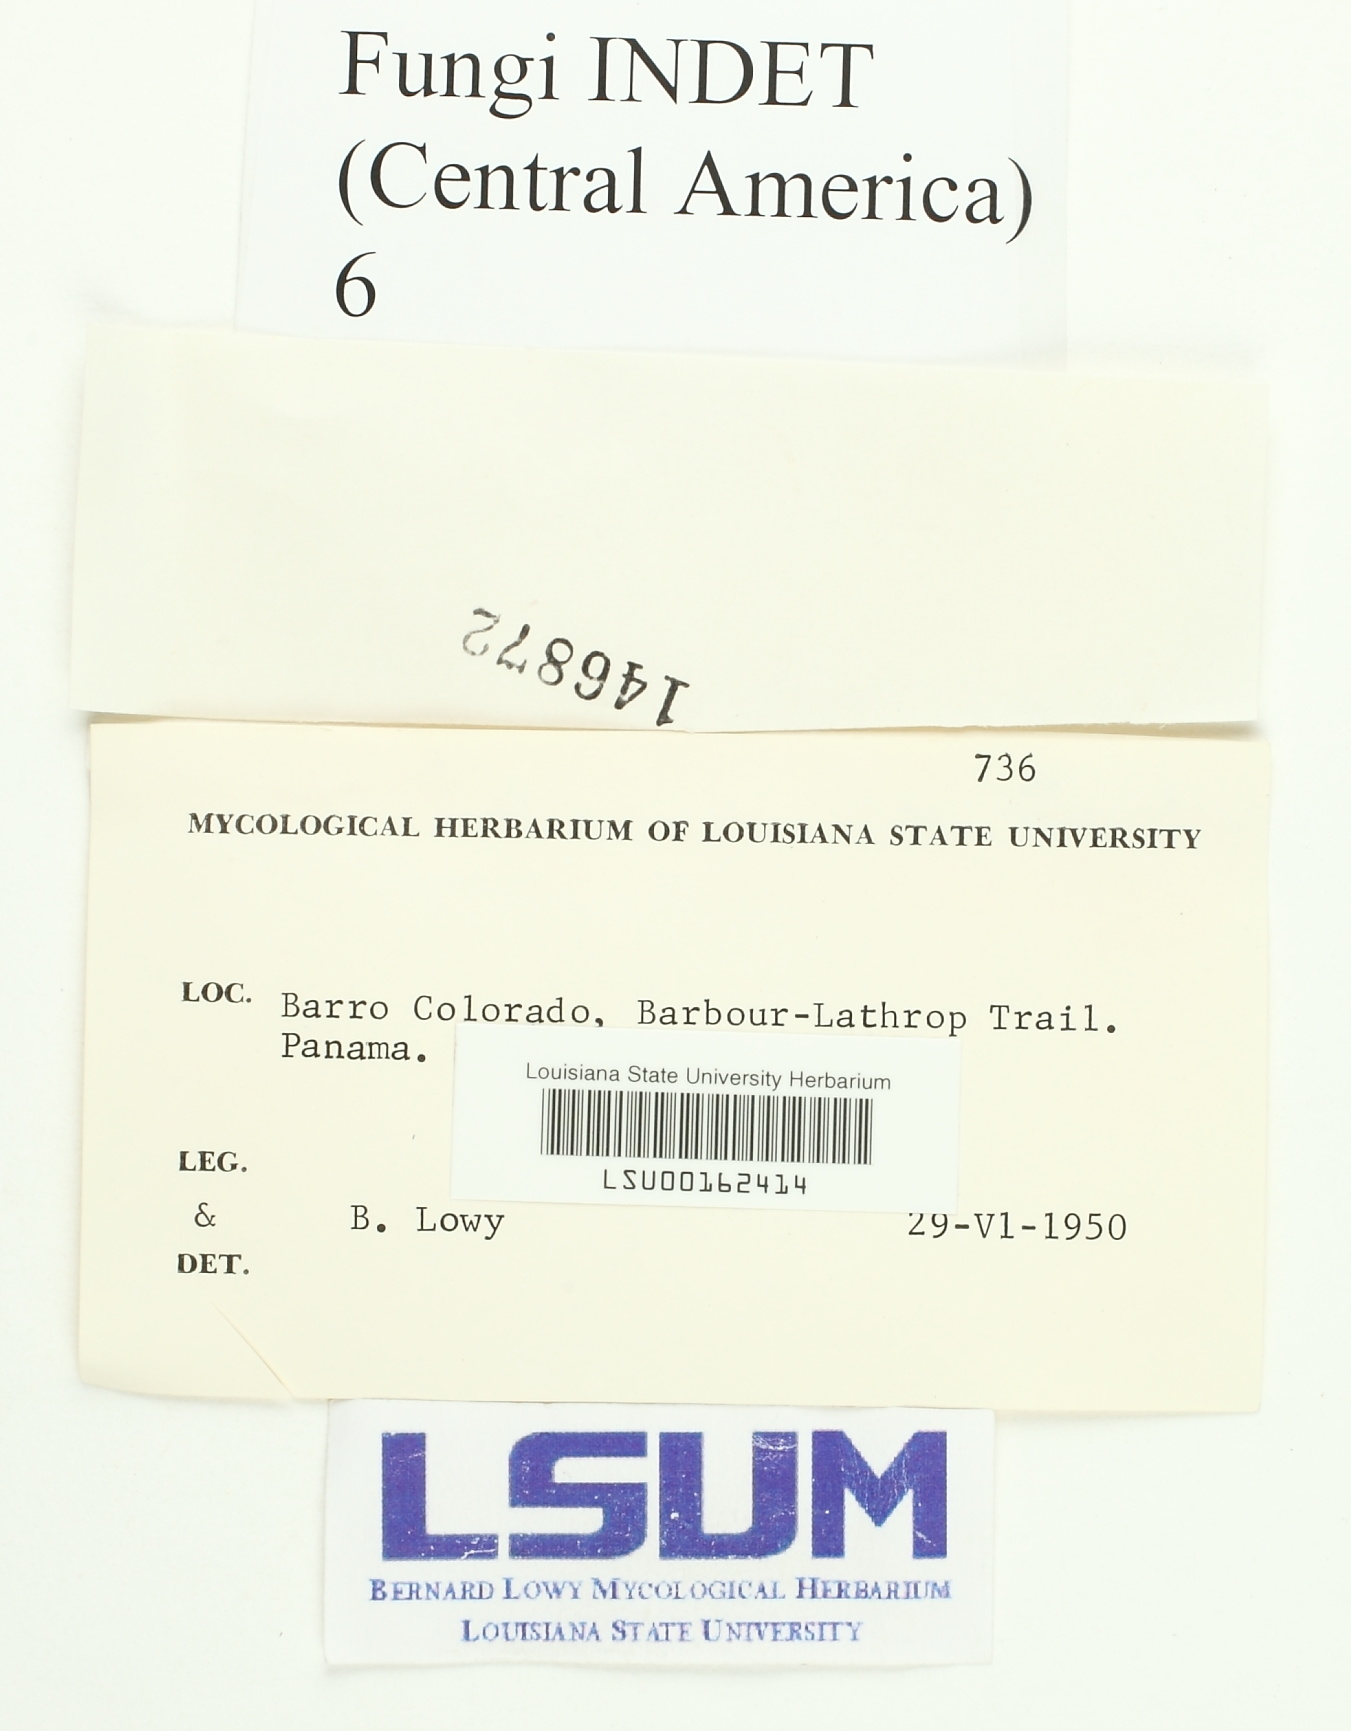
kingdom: Fungi
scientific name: Fungi
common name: Fungi
